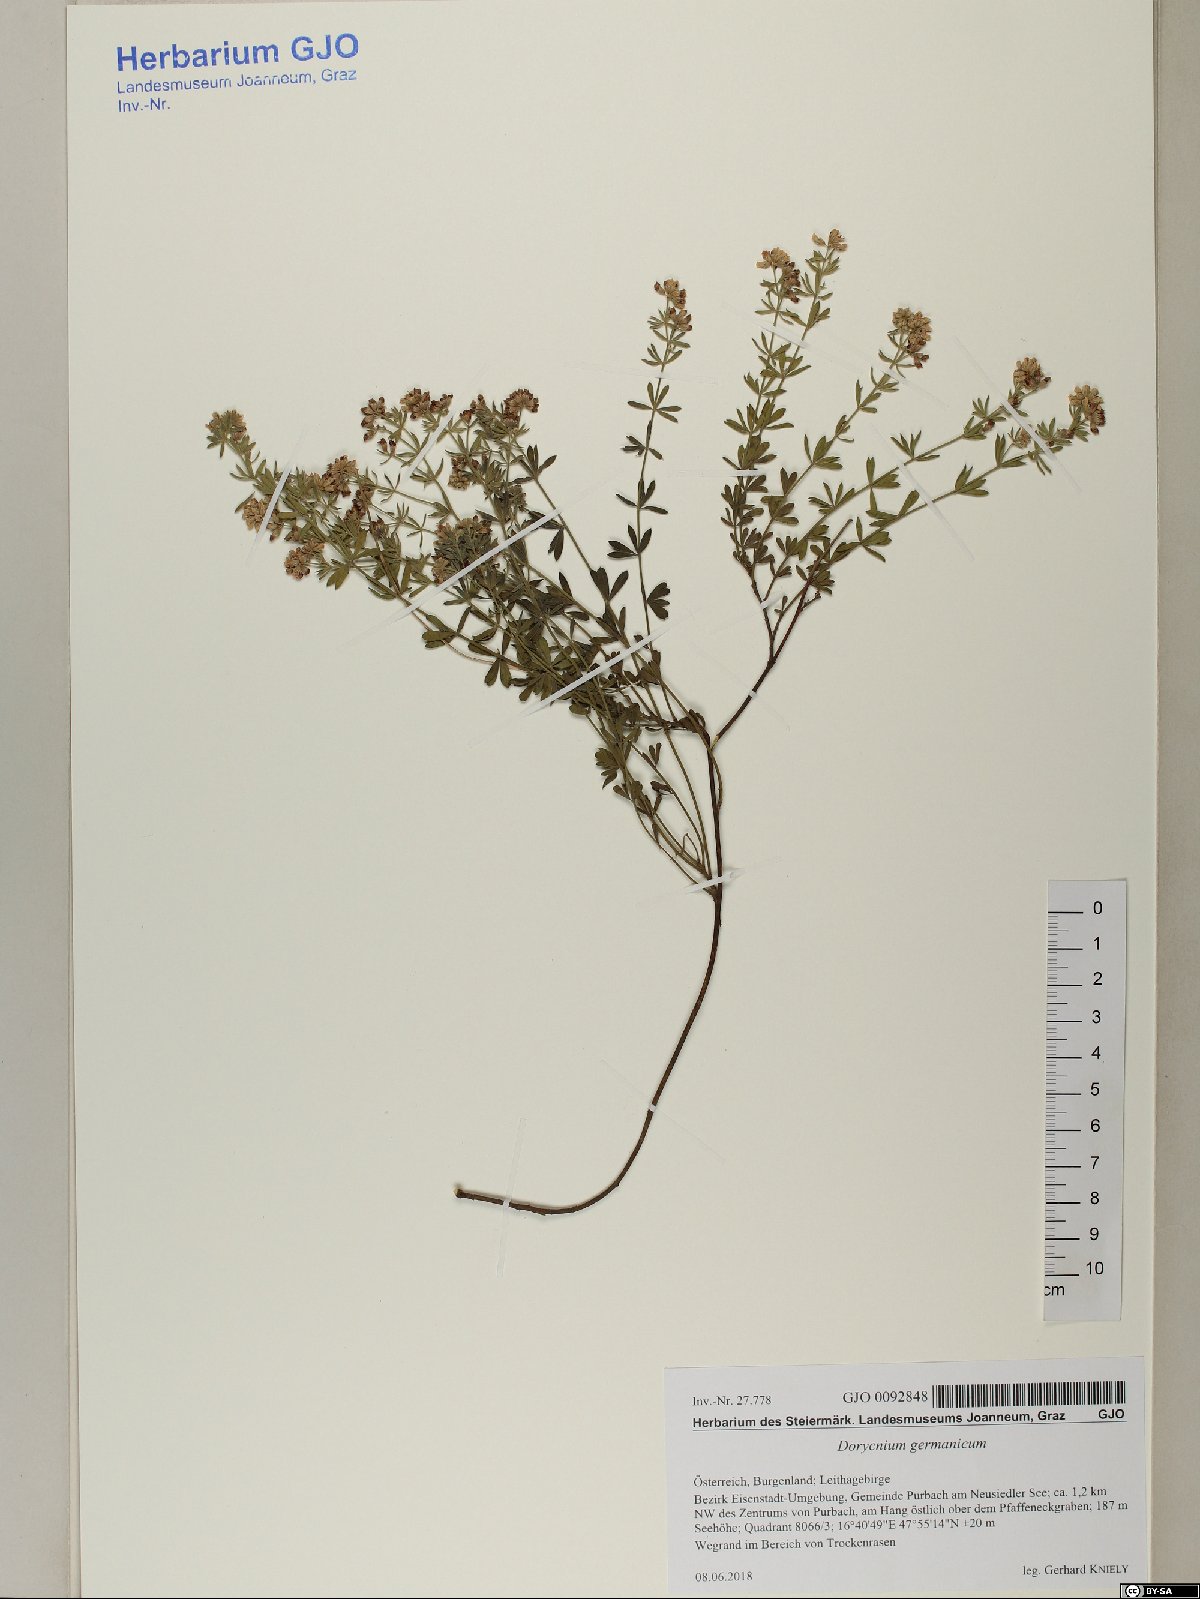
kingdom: Plantae
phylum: Tracheophyta
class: Magnoliopsida
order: Fabales
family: Fabaceae
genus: Lotus
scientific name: Lotus germanicus
